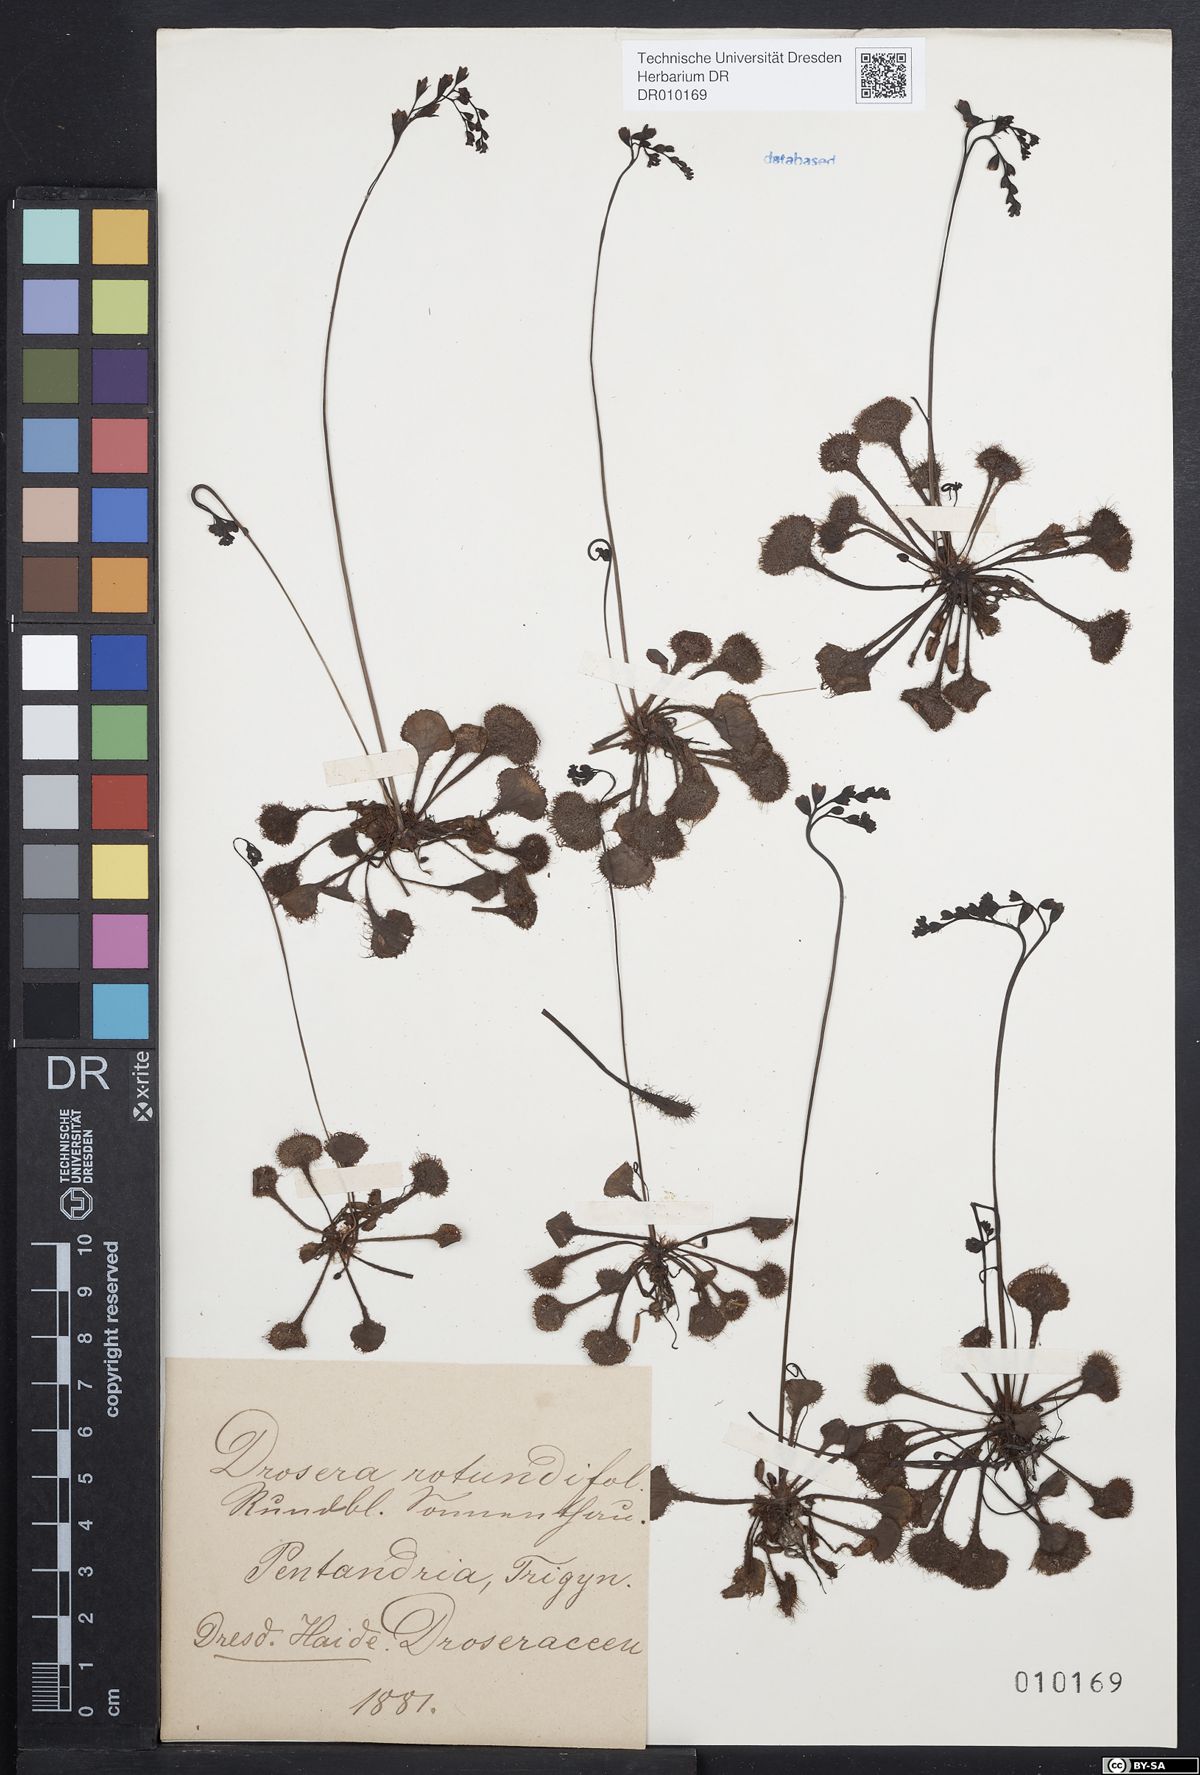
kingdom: Plantae
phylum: Tracheophyta
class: Magnoliopsida
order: Caryophyllales
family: Droseraceae
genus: Drosera
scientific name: Drosera rotundifolia
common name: Round-leaved sundew
